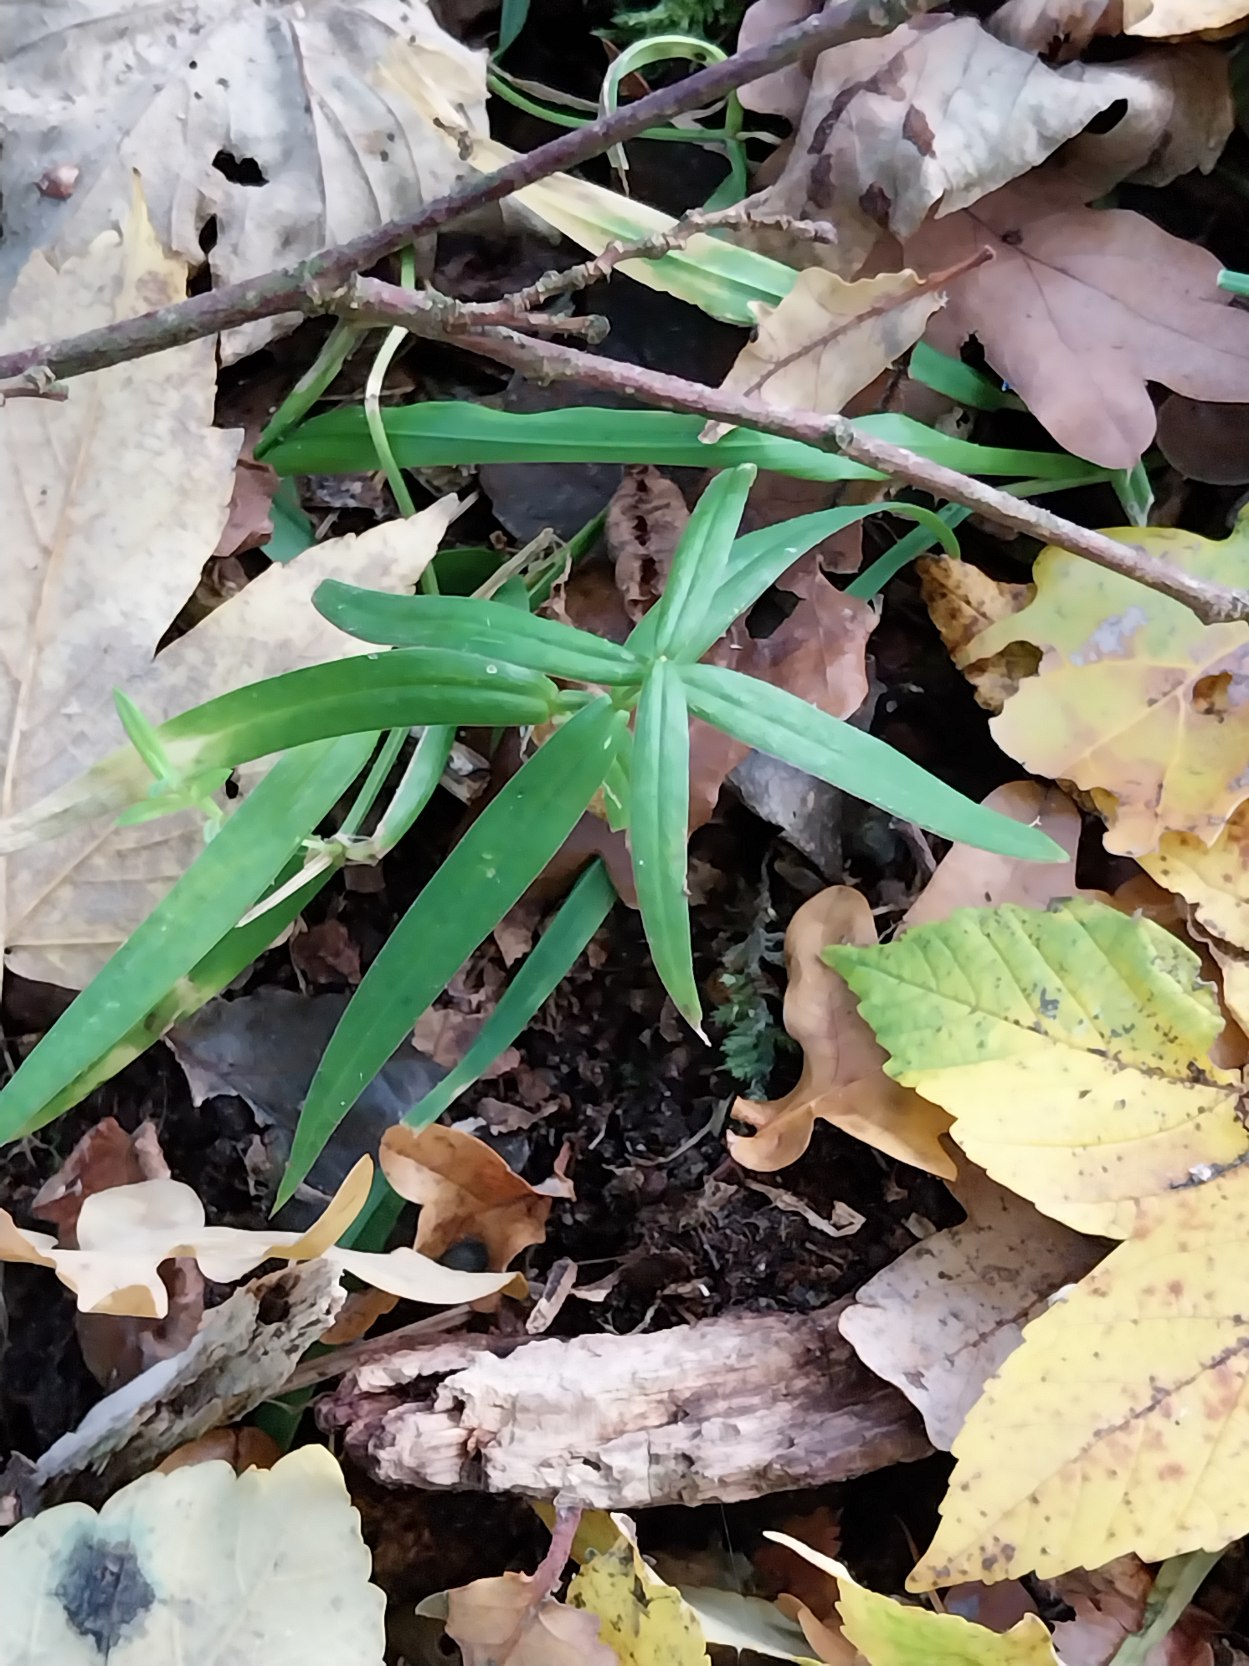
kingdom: Plantae
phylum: Tracheophyta
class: Magnoliopsida
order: Caryophyllales
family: Caryophyllaceae
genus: Rabelera
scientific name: Rabelera holostea
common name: Stor fladstjerne
